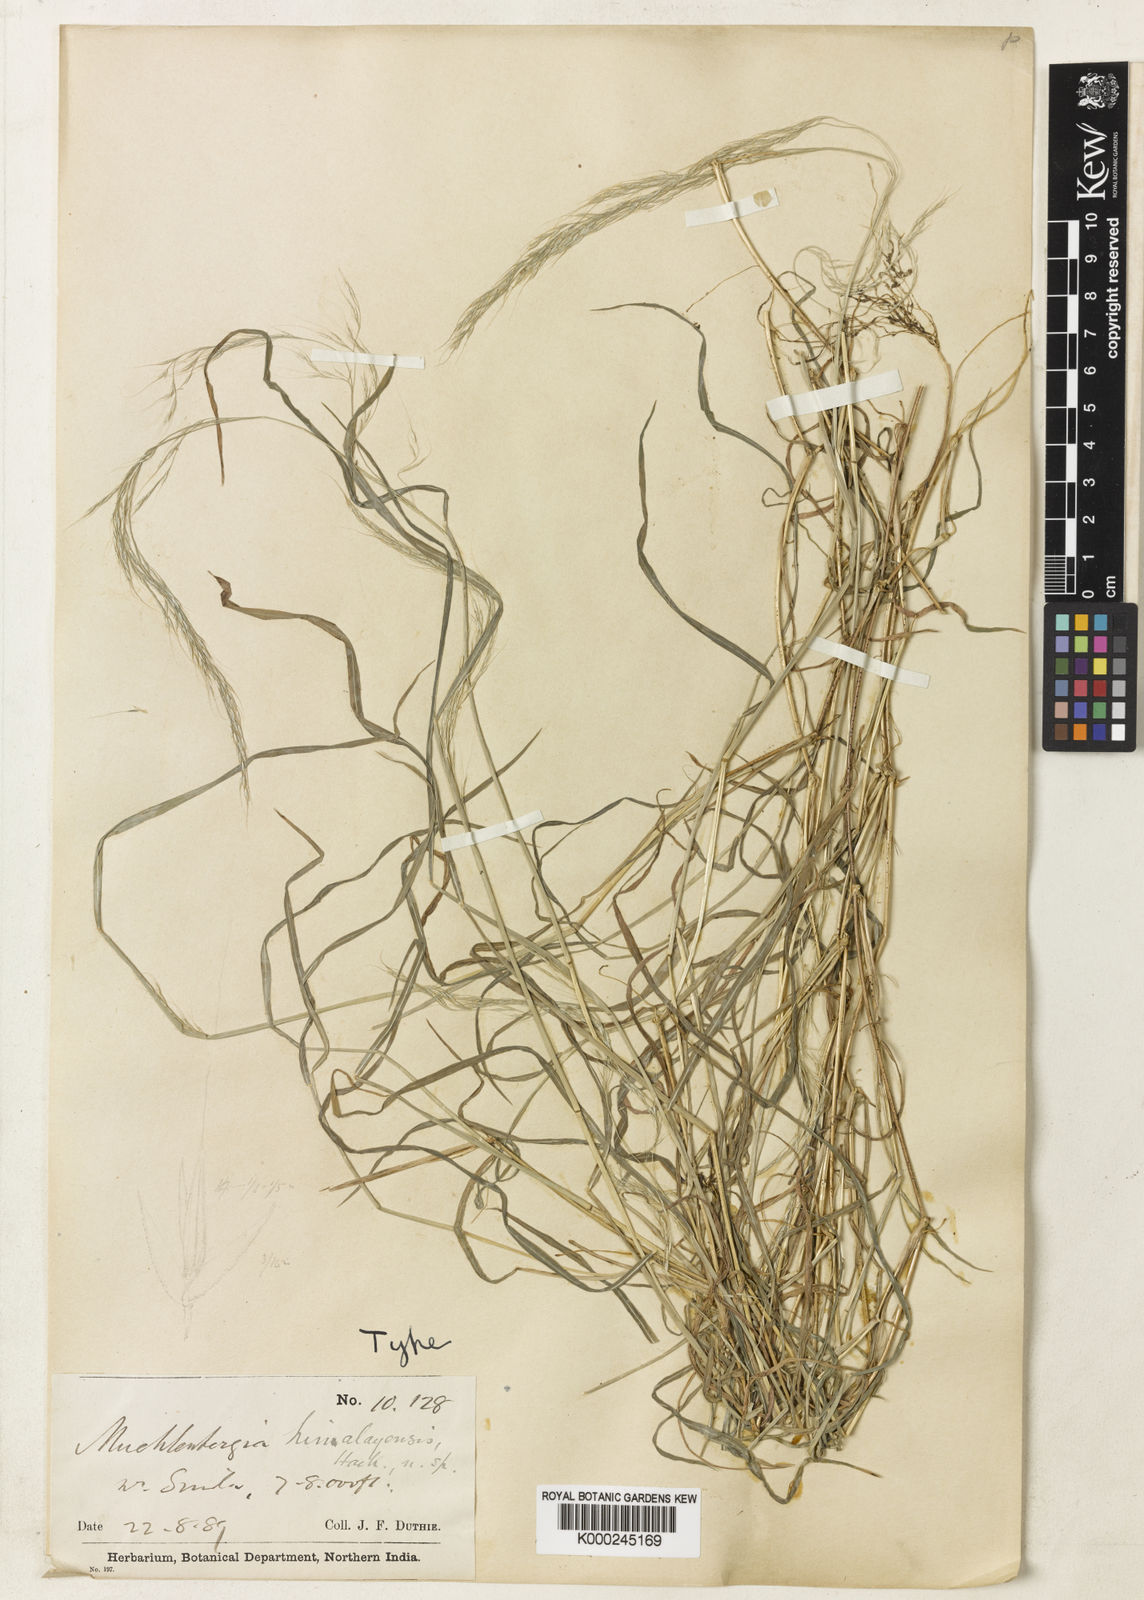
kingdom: Plantae
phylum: Tracheophyta
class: Liliopsida
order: Poales
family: Poaceae
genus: Muhlenbergia
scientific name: Muhlenbergia himalayensis
